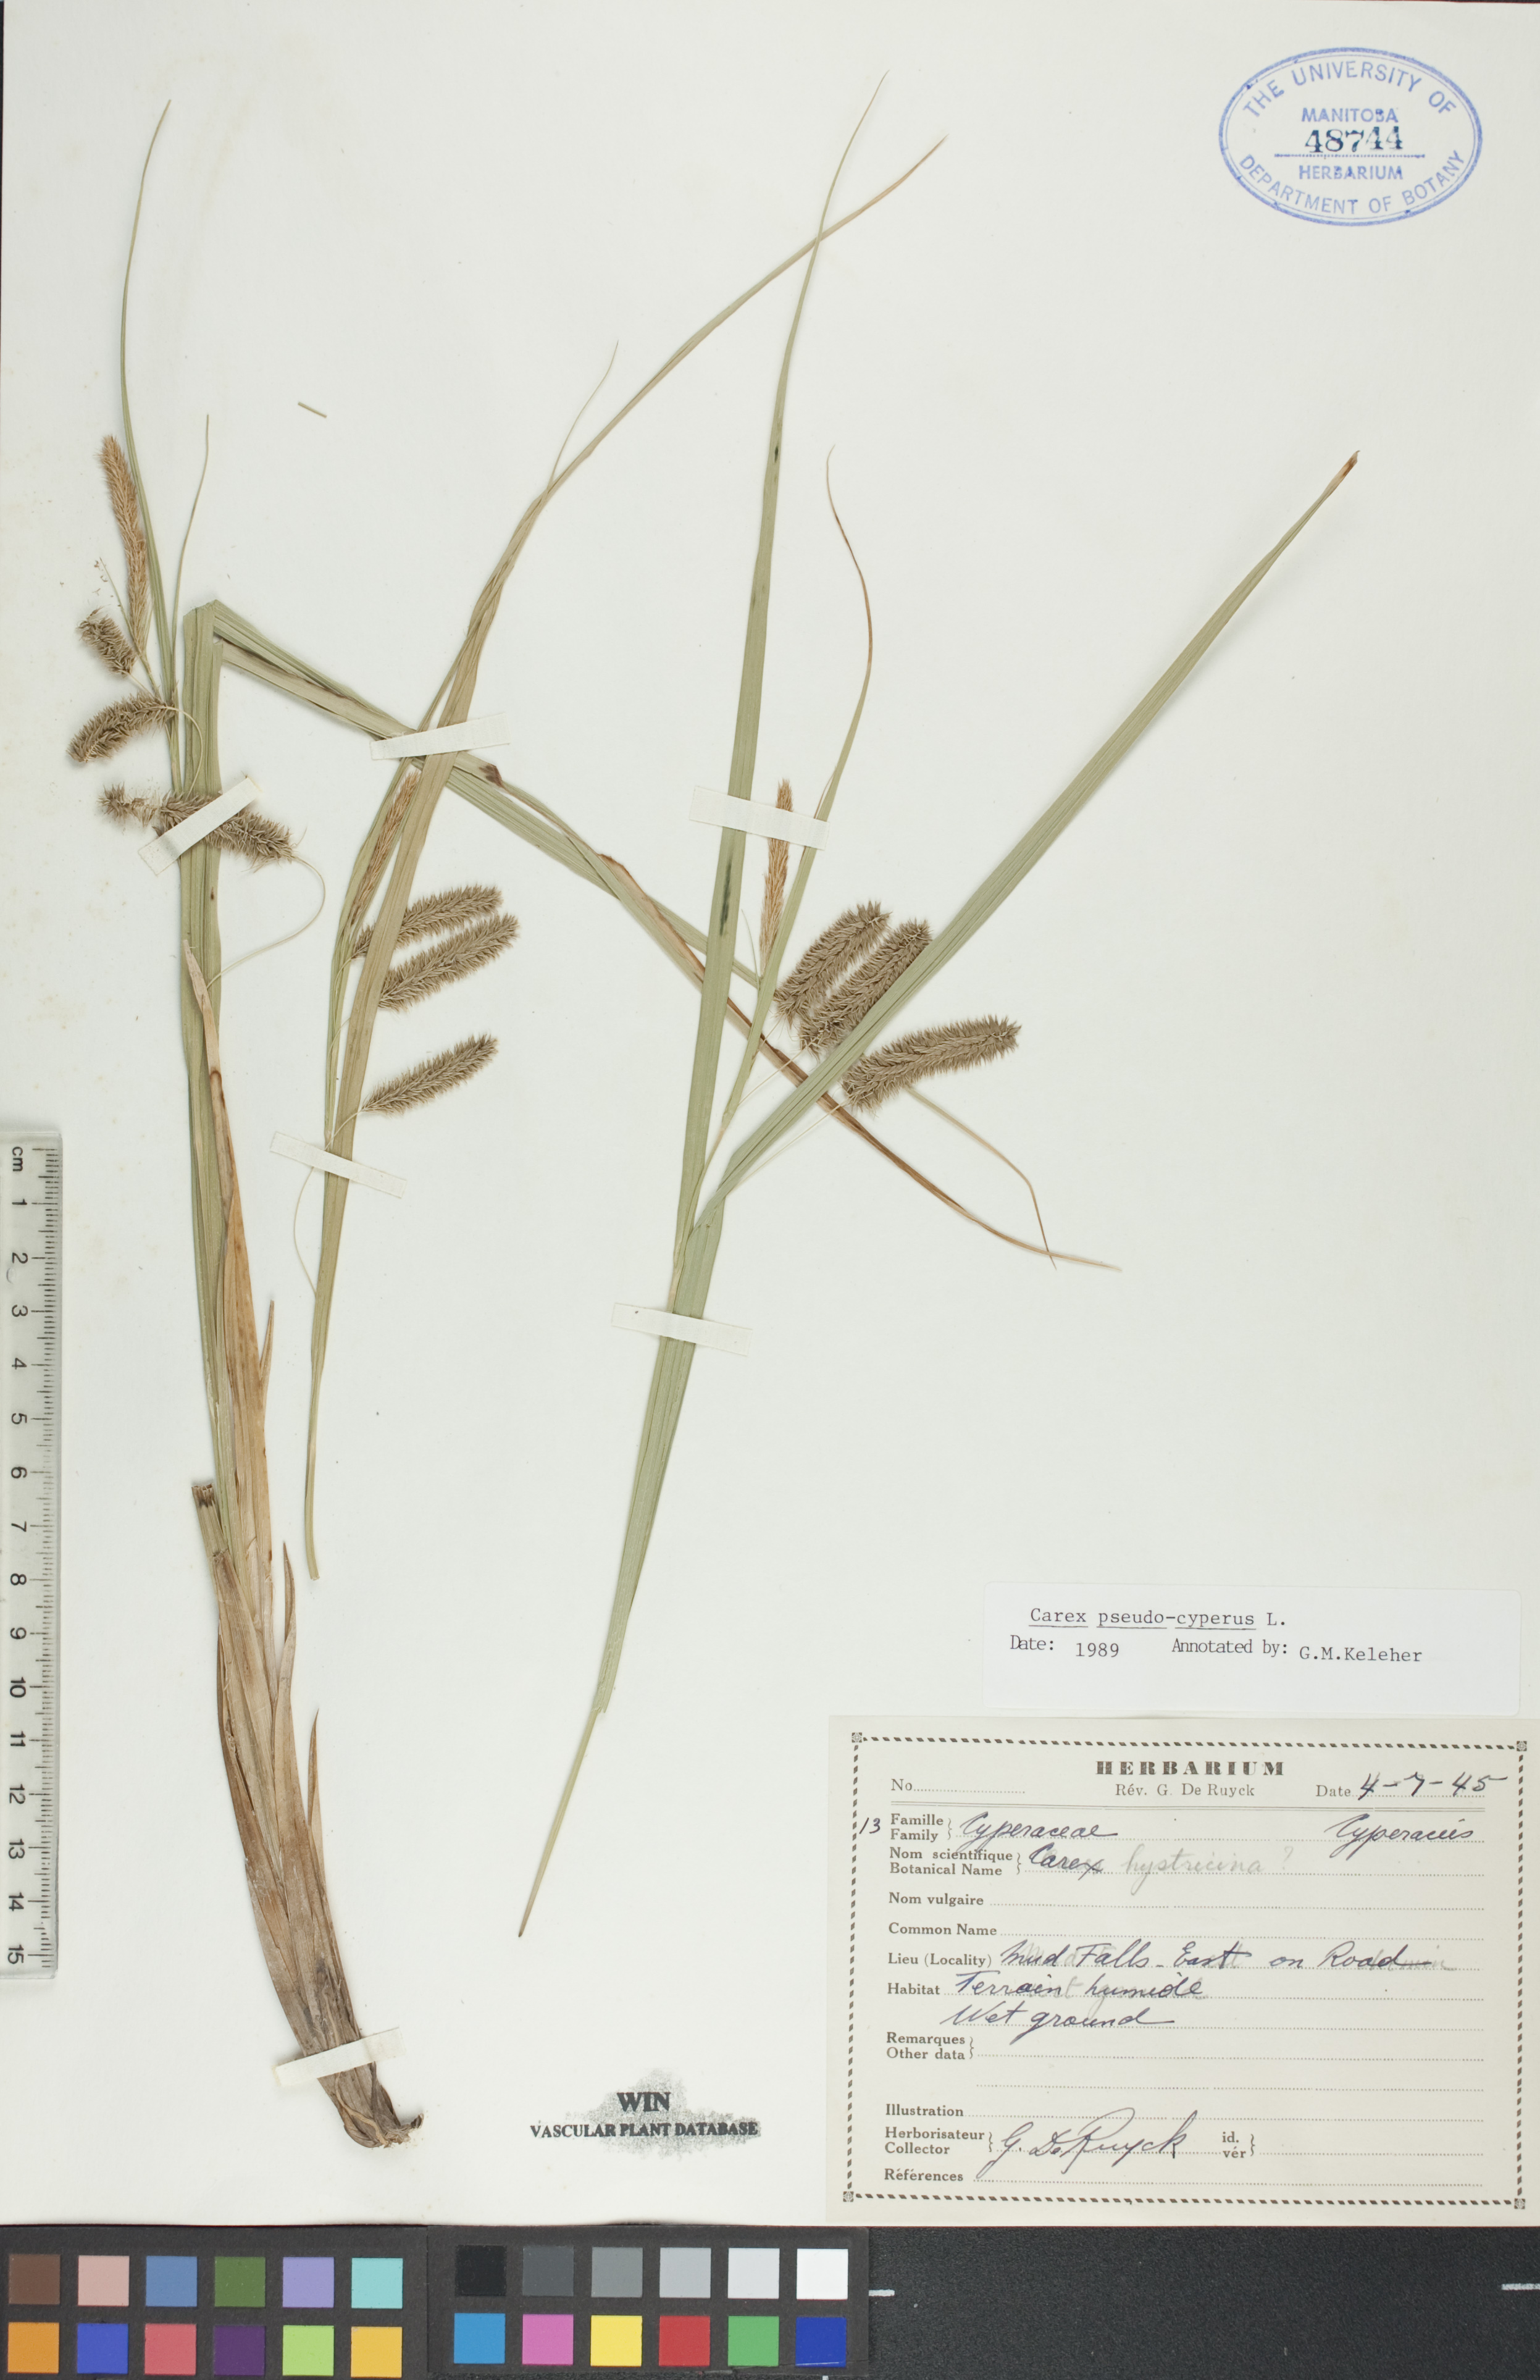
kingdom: Plantae
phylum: Tracheophyta
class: Liliopsida
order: Poales
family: Cyperaceae
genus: Carex
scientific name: Carex pseudocyperus
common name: Cyperus sedge
